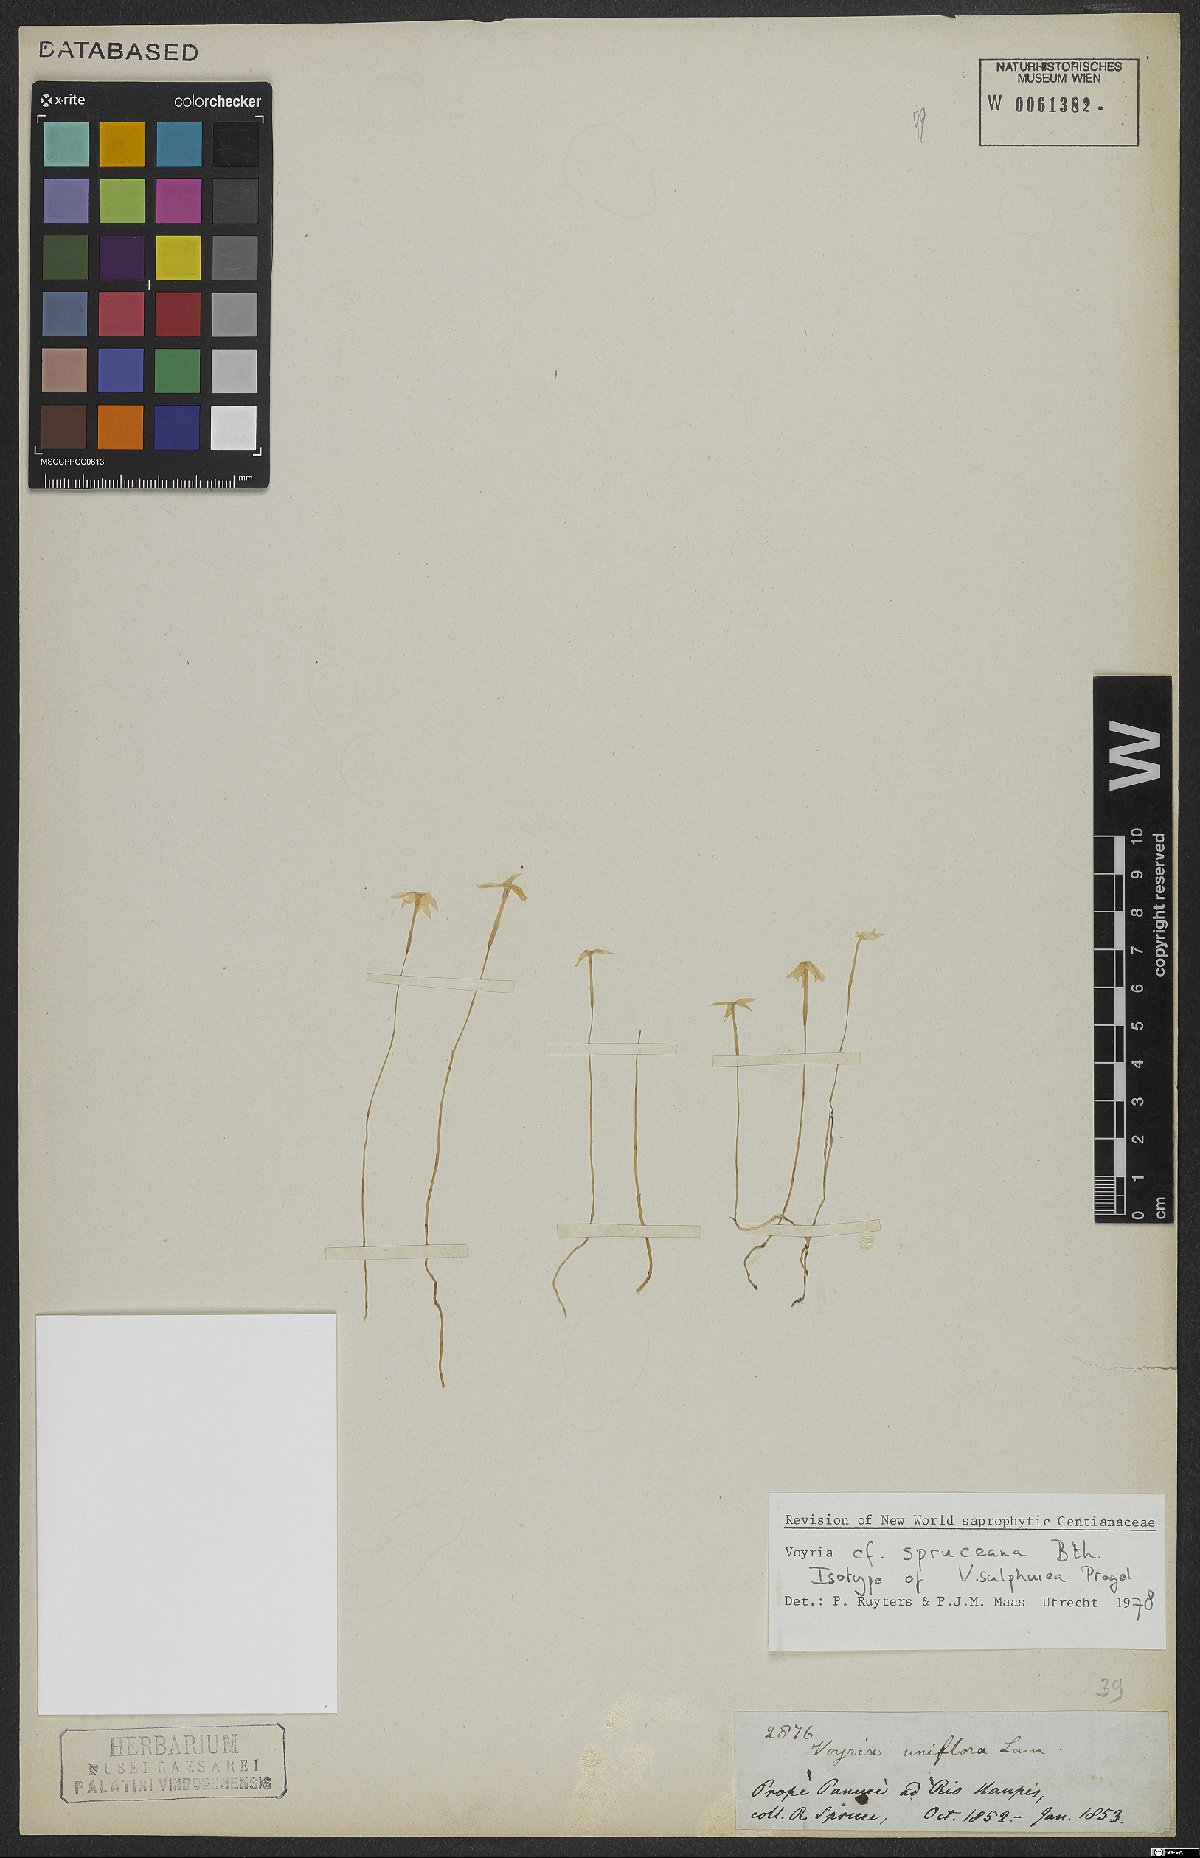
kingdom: Plantae
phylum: Tracheophyta
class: Magnoliopsida
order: Gentianales
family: Gentianaceae
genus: Voyria
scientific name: Voyria spruceana
